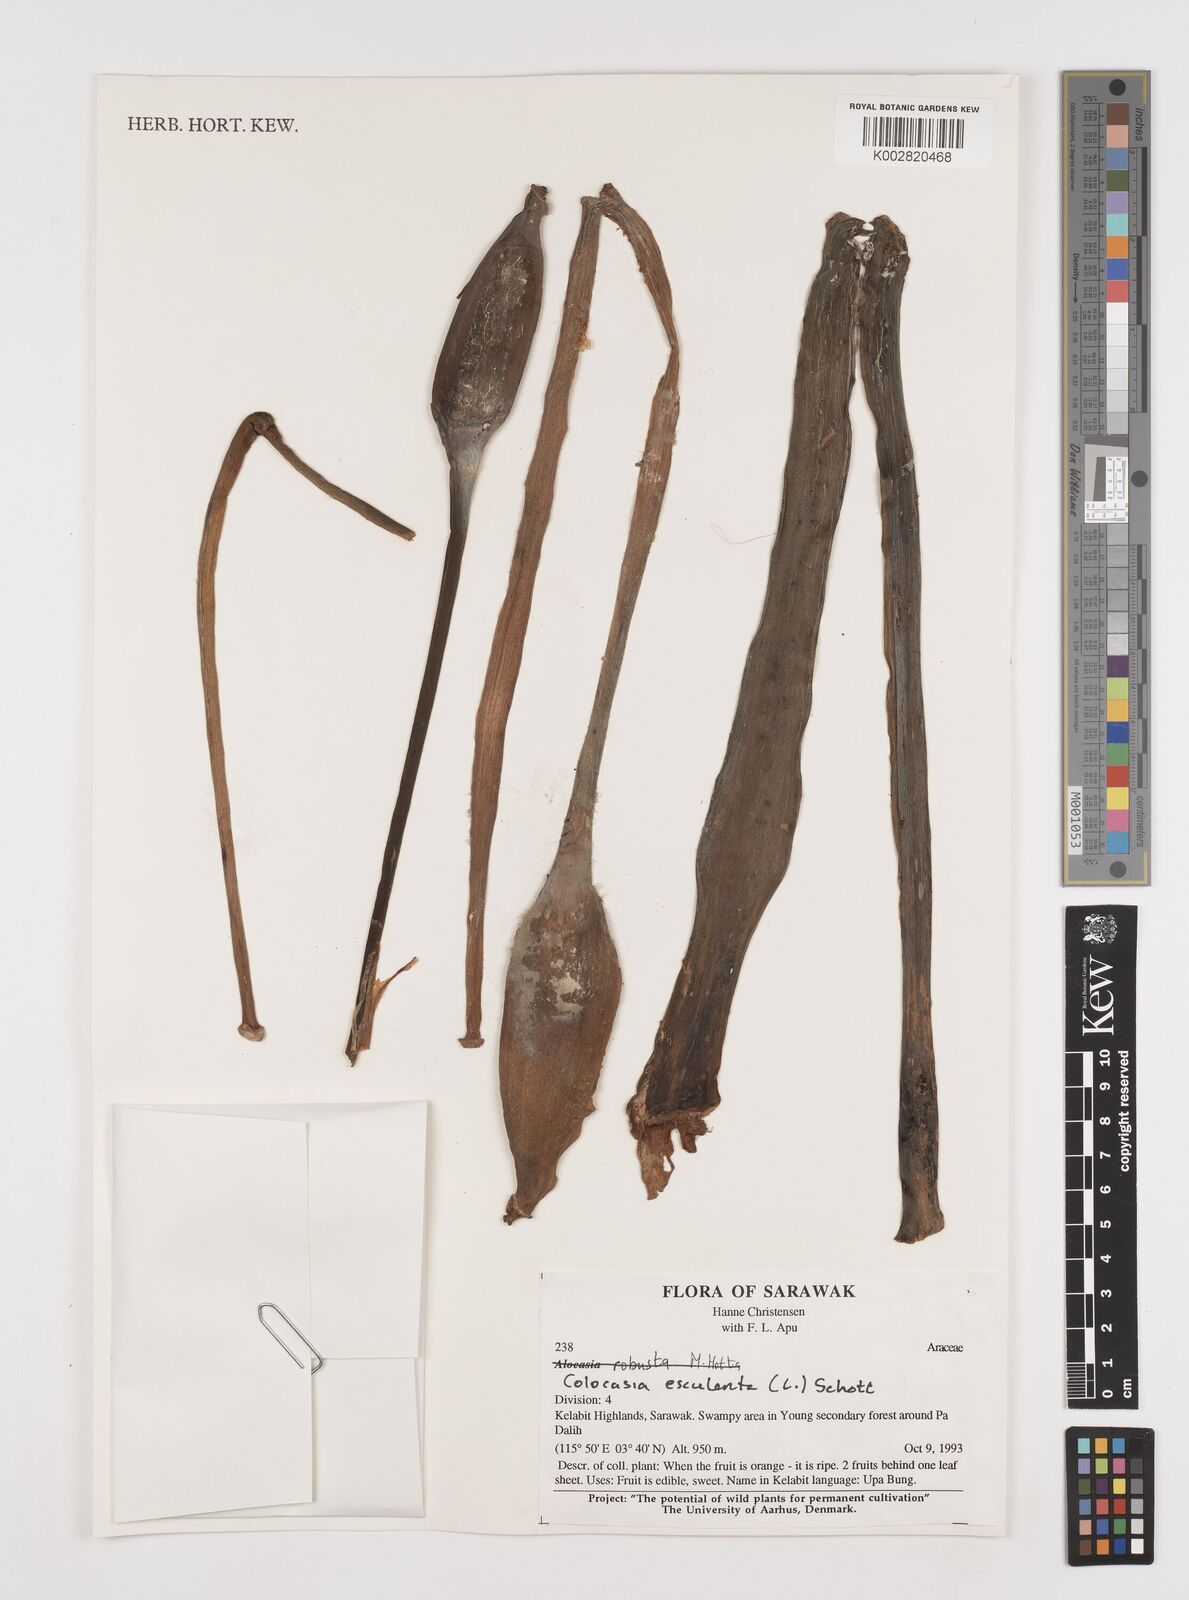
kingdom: Plantae
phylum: Tracheophyta
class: Liliopsida
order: Alismatales
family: Araceae
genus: Colocasia
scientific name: Colocasia esculenta
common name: Taro
